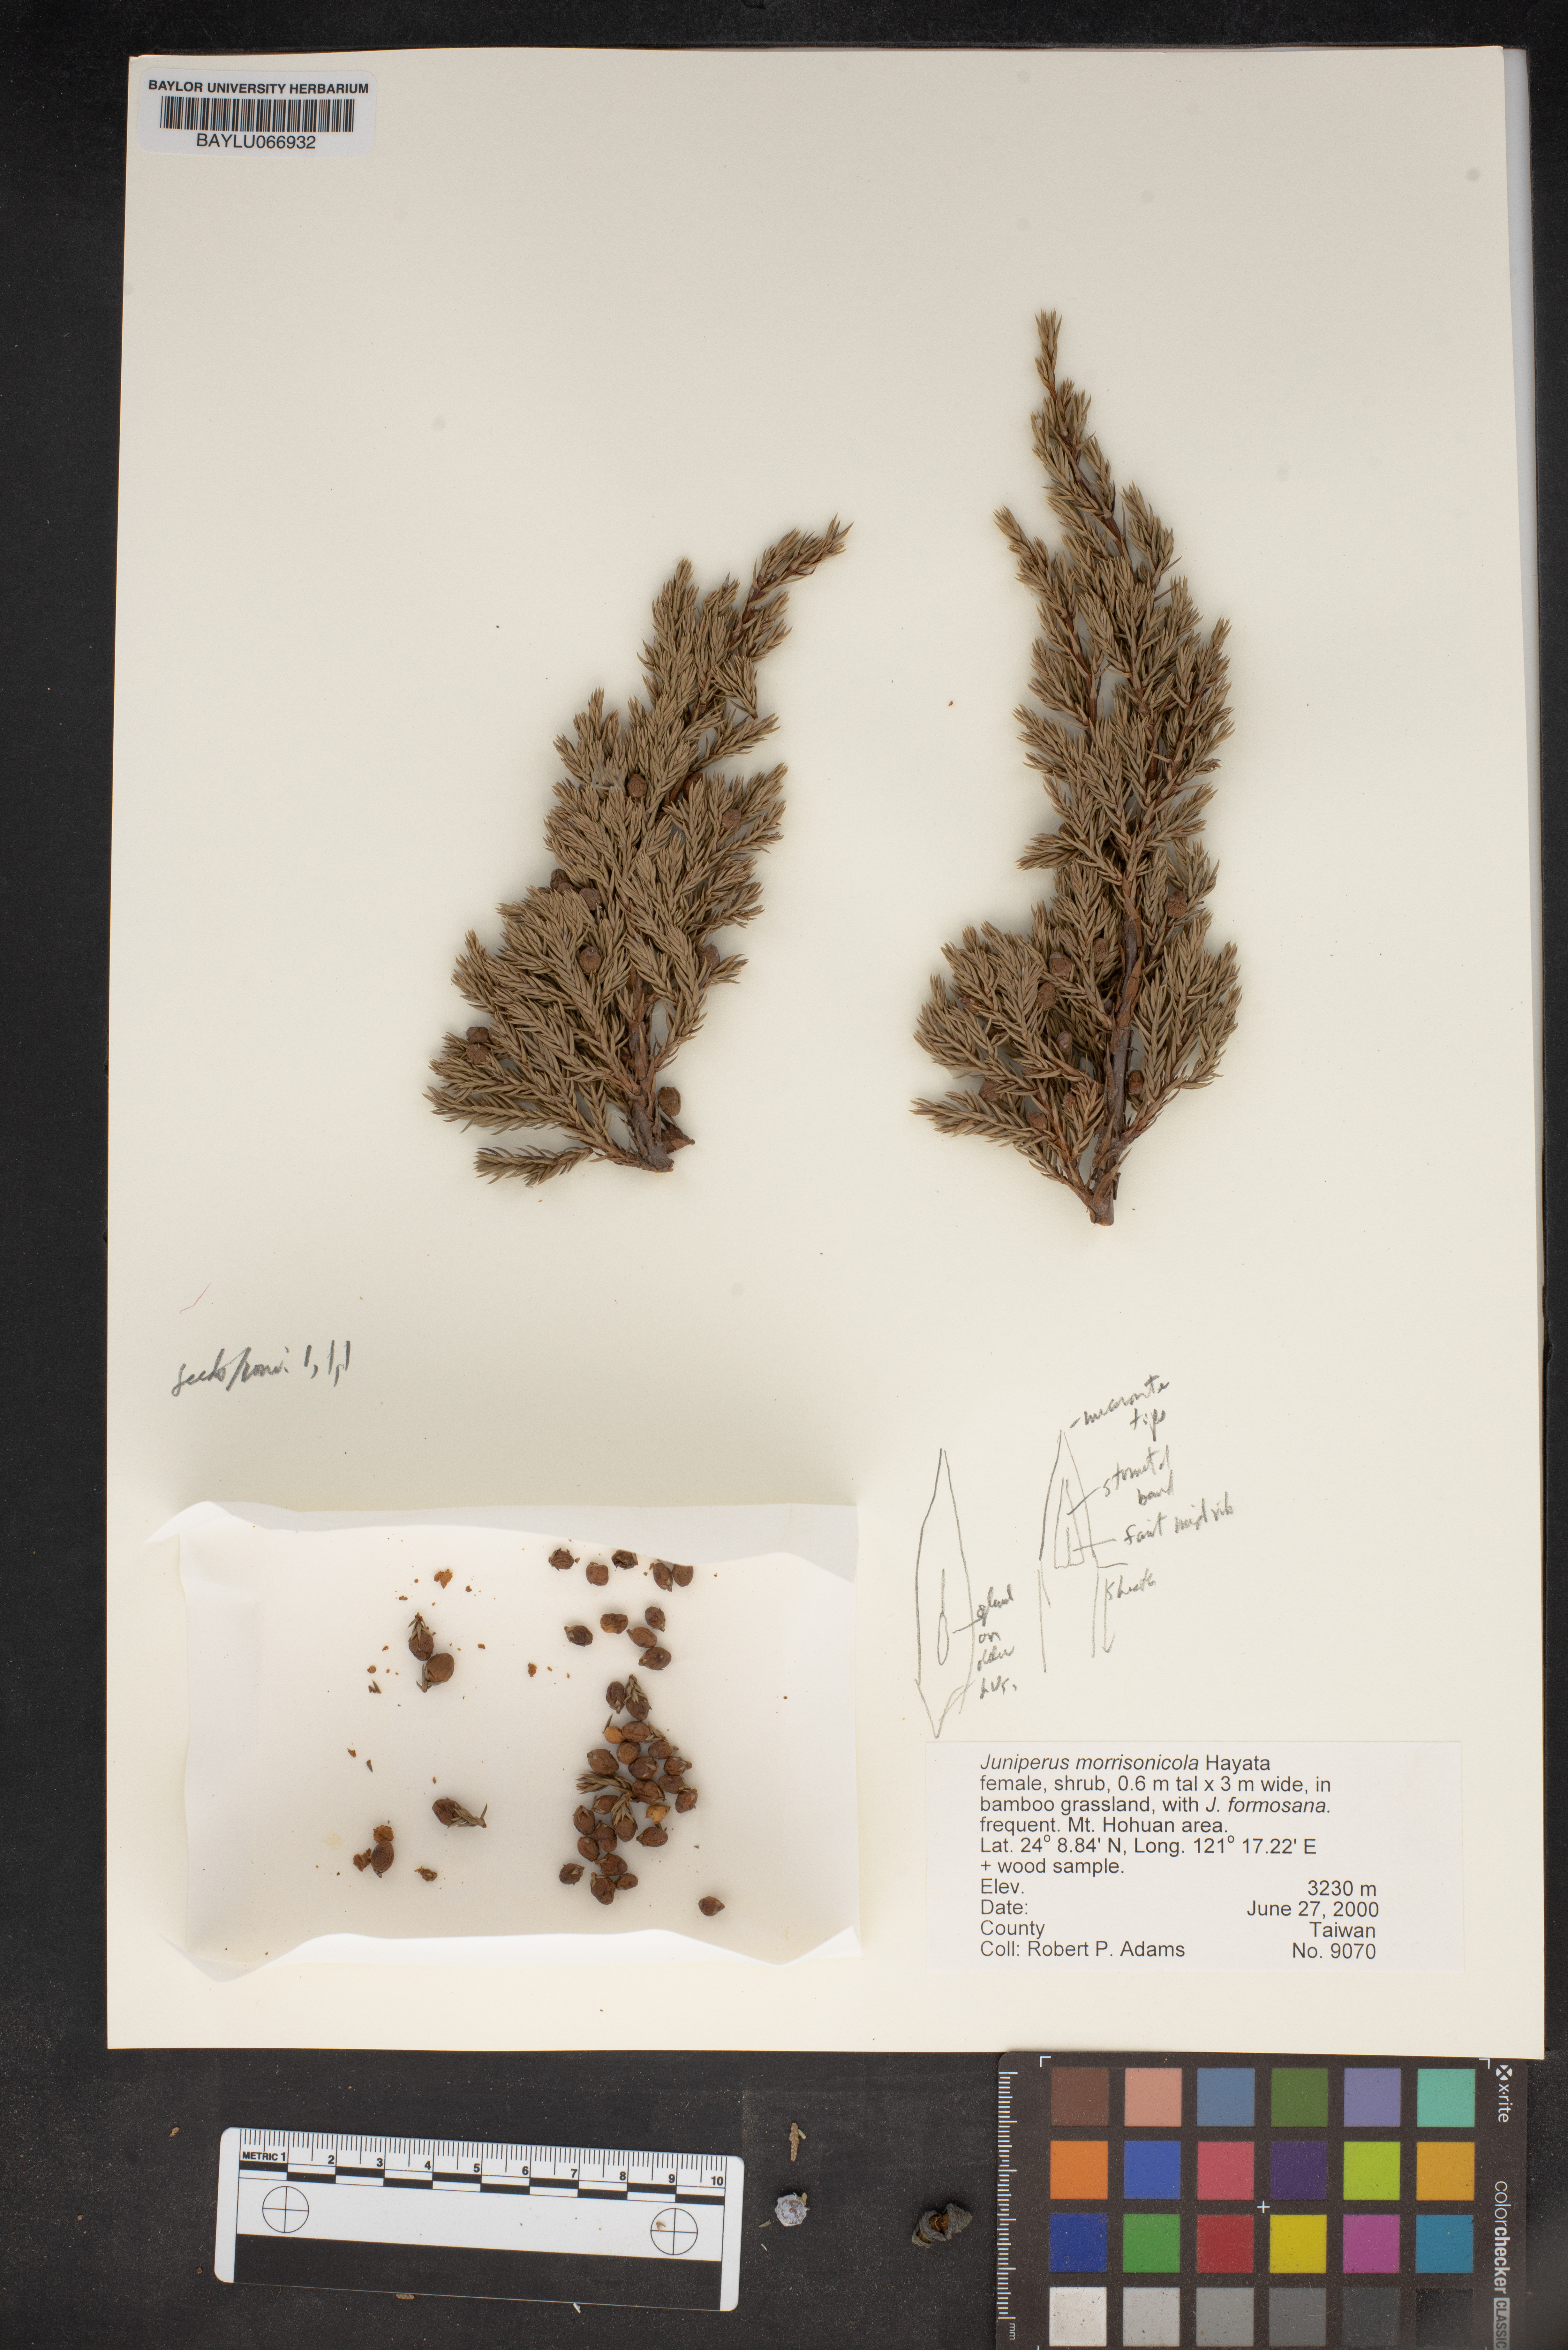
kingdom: Plantae
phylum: Tracheophyta
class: Pinopsida
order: Pinales
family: Cupressaceae
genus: Juniperus
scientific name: Juniperus squamata
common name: Flaky juniper
